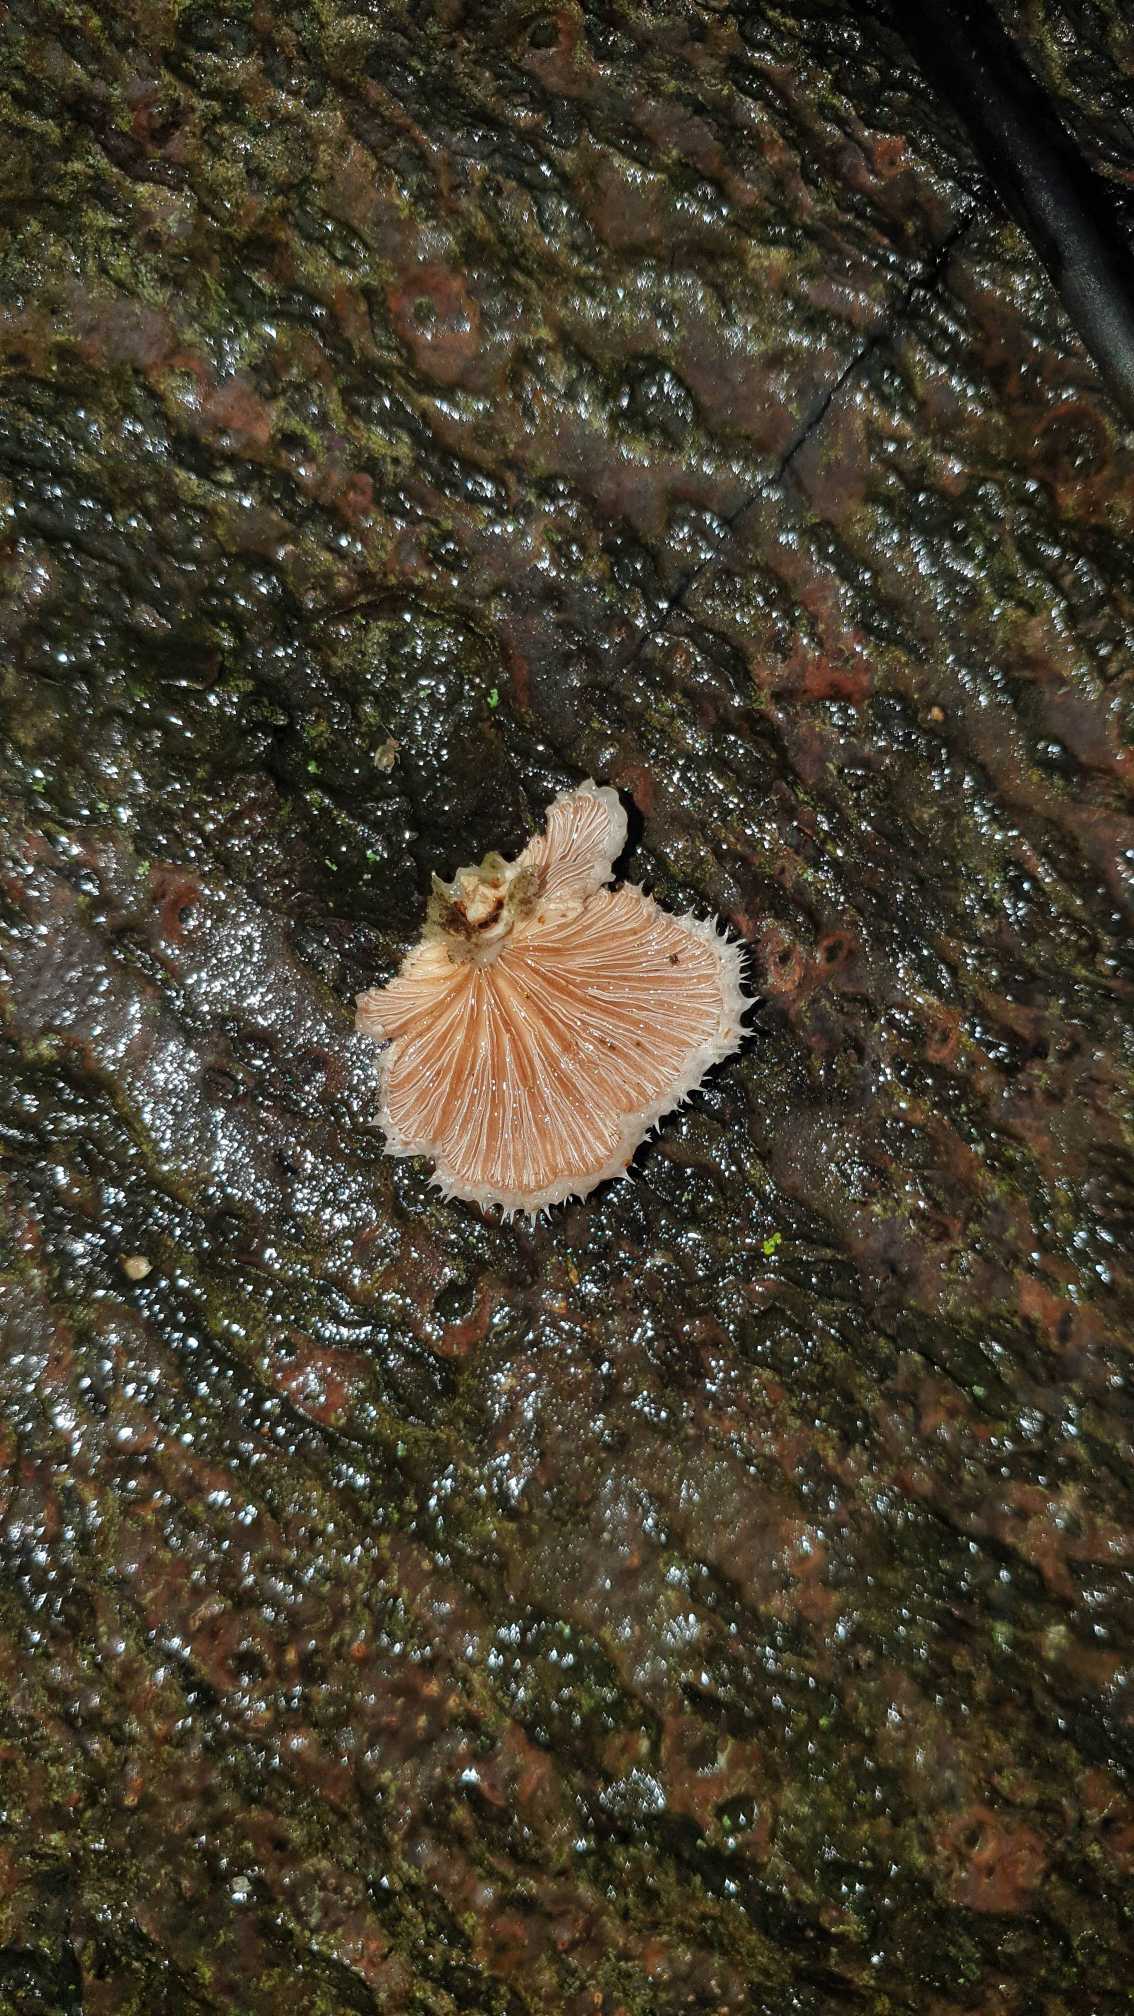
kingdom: Fungi
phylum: Basidiomycota
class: Agaricomycetes
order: Agaricales
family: Schizophyllaceae
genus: Schizophyllum
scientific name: Schizophyllum commune
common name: Kløvblad
